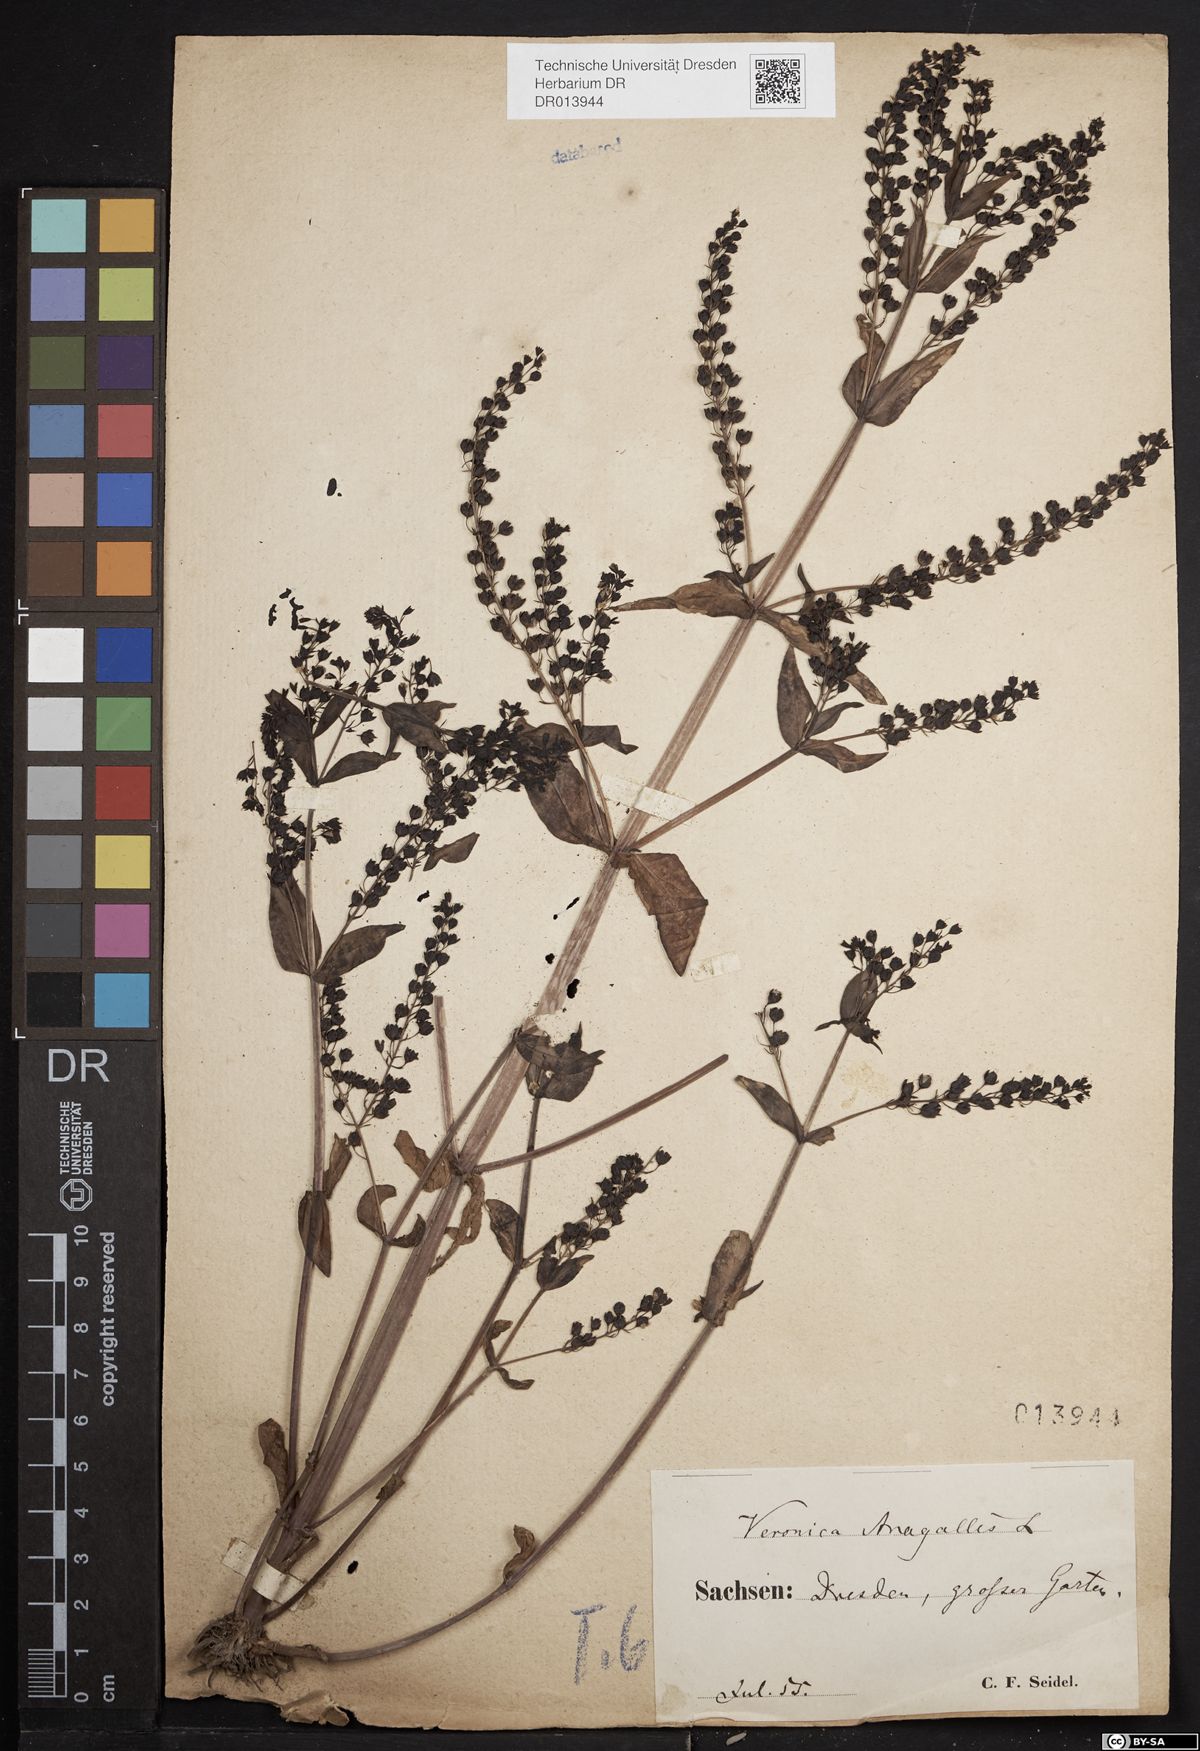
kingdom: Plantae
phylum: Tracheophyta
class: Magnoliopsida
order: Lamiales
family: Plantaginaceae
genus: Veronica
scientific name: Veronica anagallis-aquatica
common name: Water speedwell
